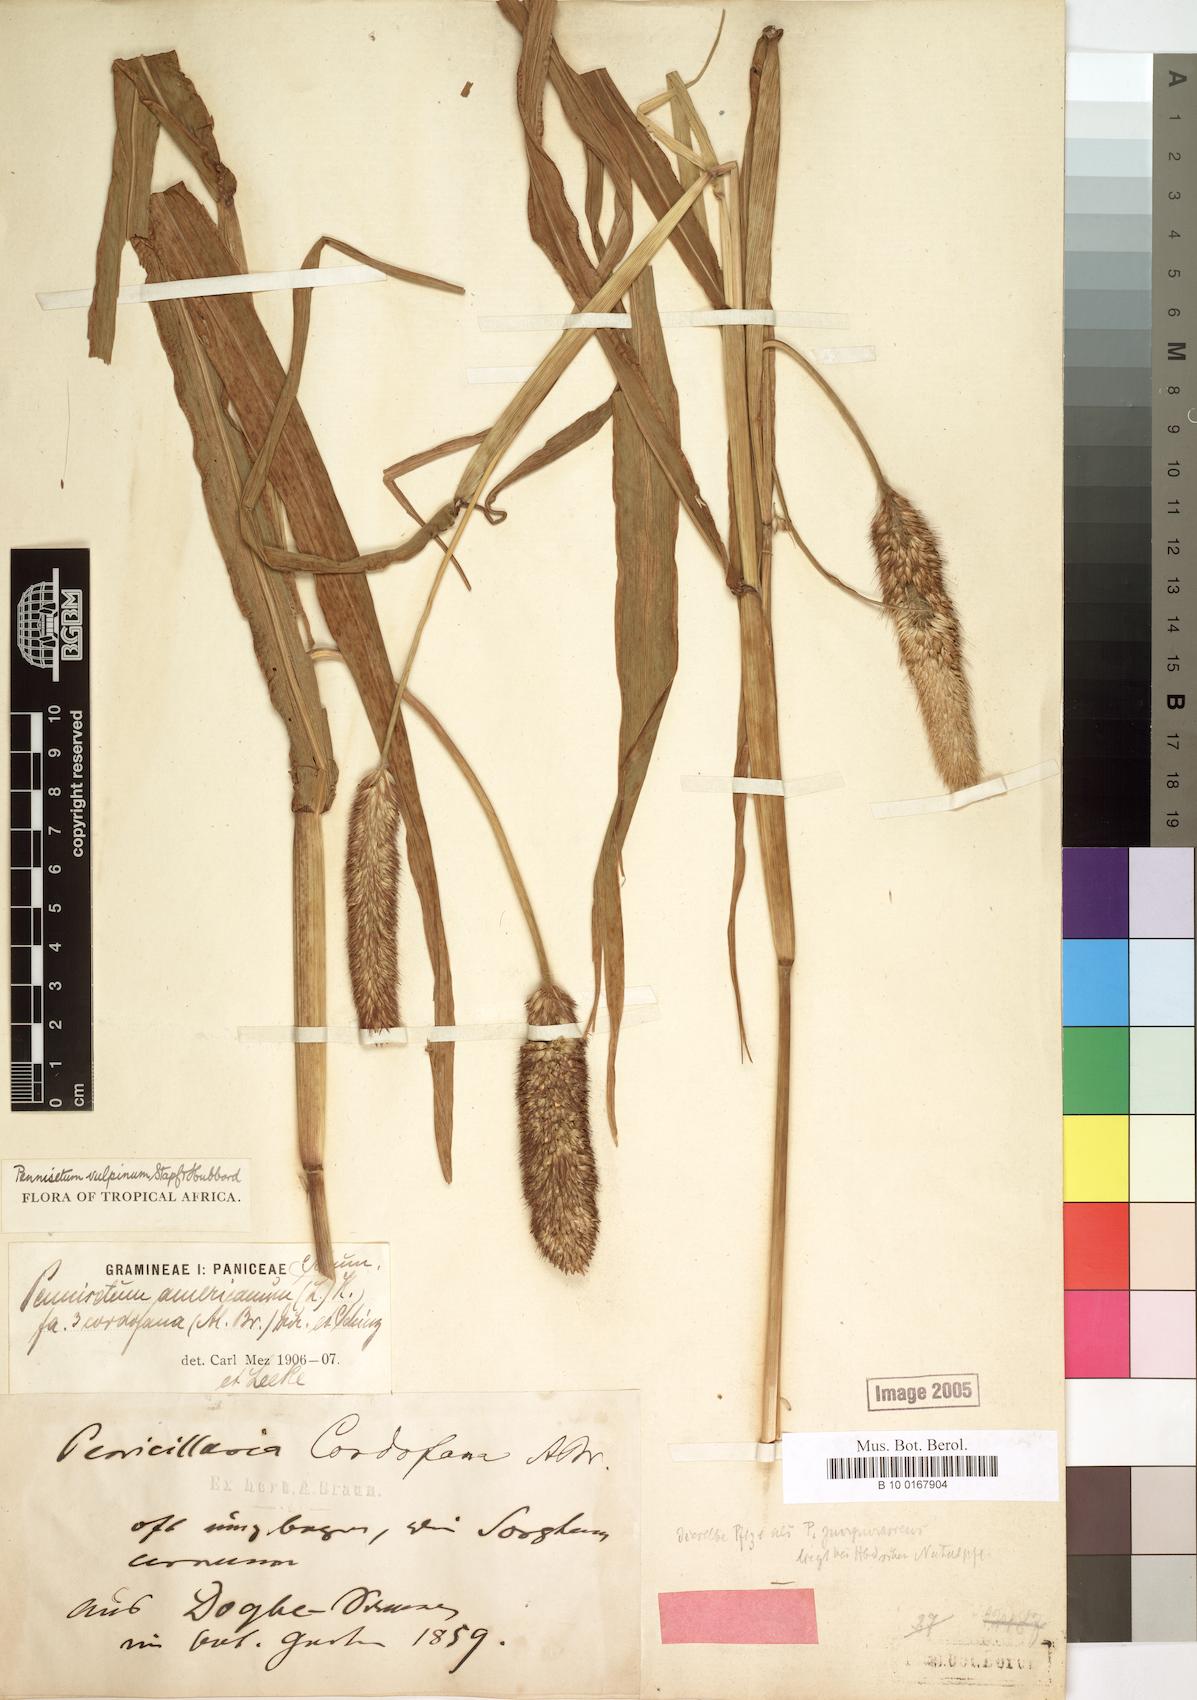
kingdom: Plantae
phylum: Tracheophyta
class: Liliopsida
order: Poales
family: Poaceae
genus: Cenchrus
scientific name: Cenchrus sieberianus
